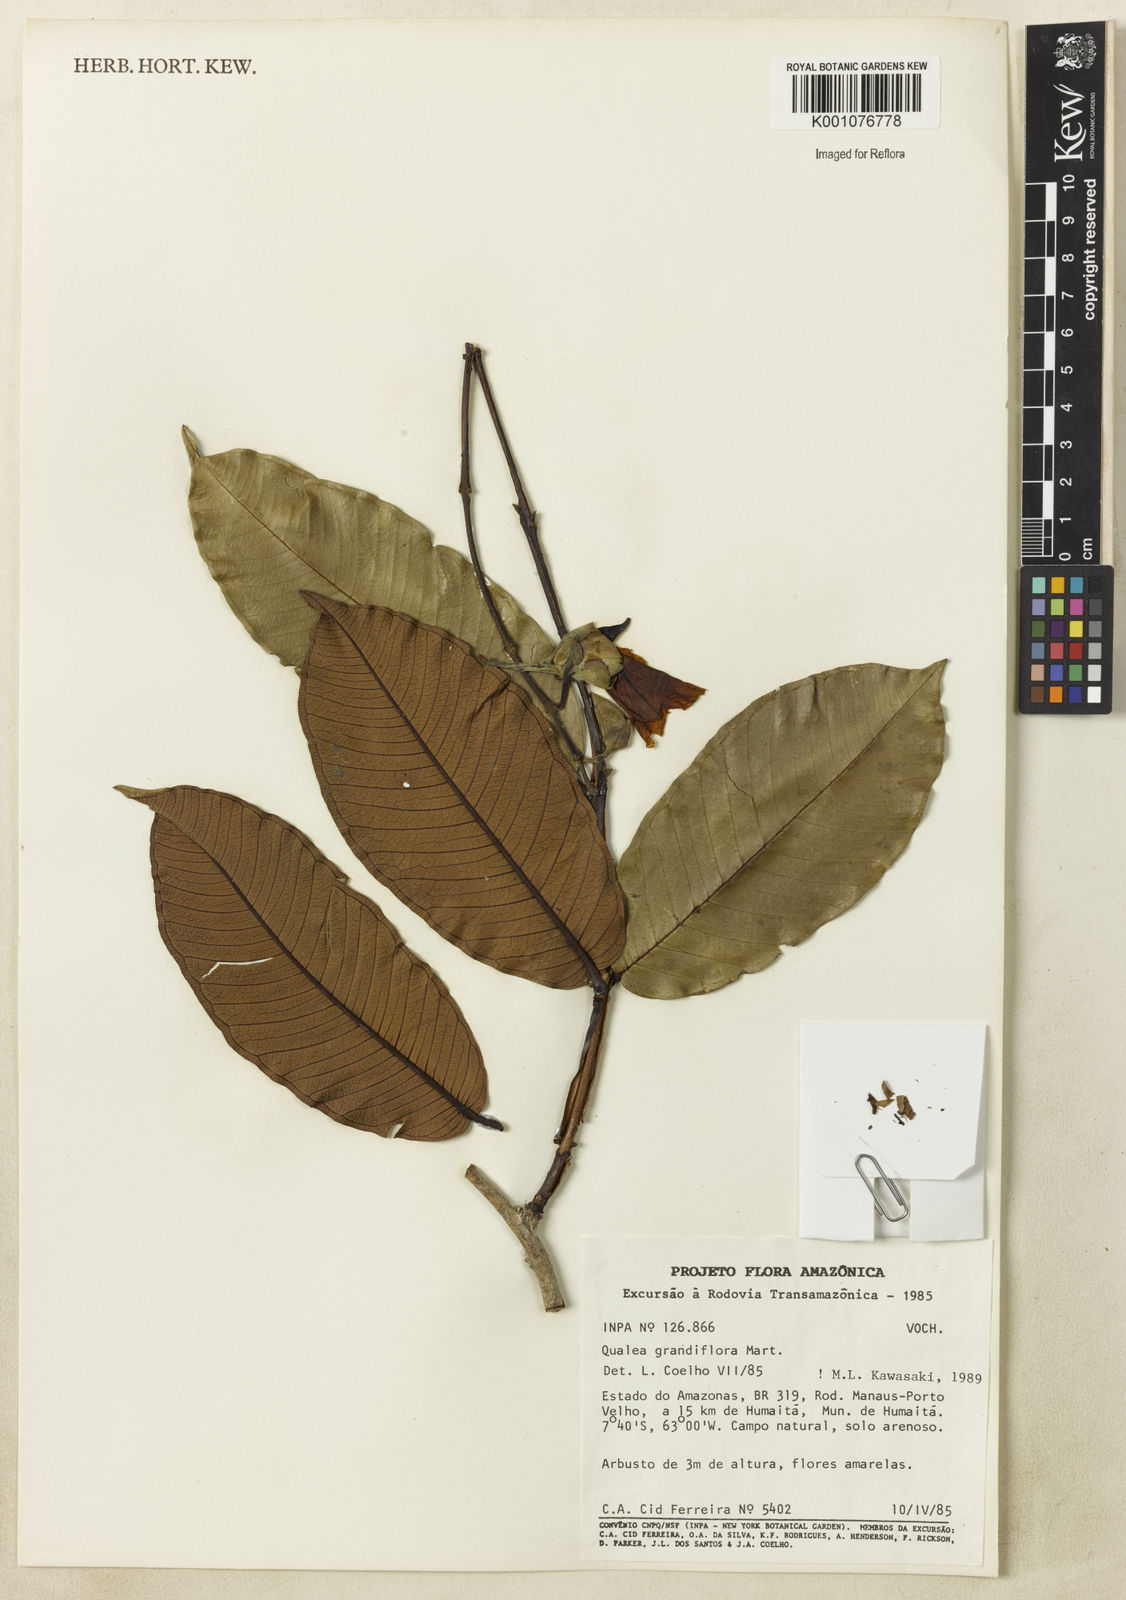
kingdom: Plantae
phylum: Tracheophyta
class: Magnoliopsida
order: Myrtales
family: Vochysiaceae
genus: Qualea
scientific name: Qualea grandiflora
